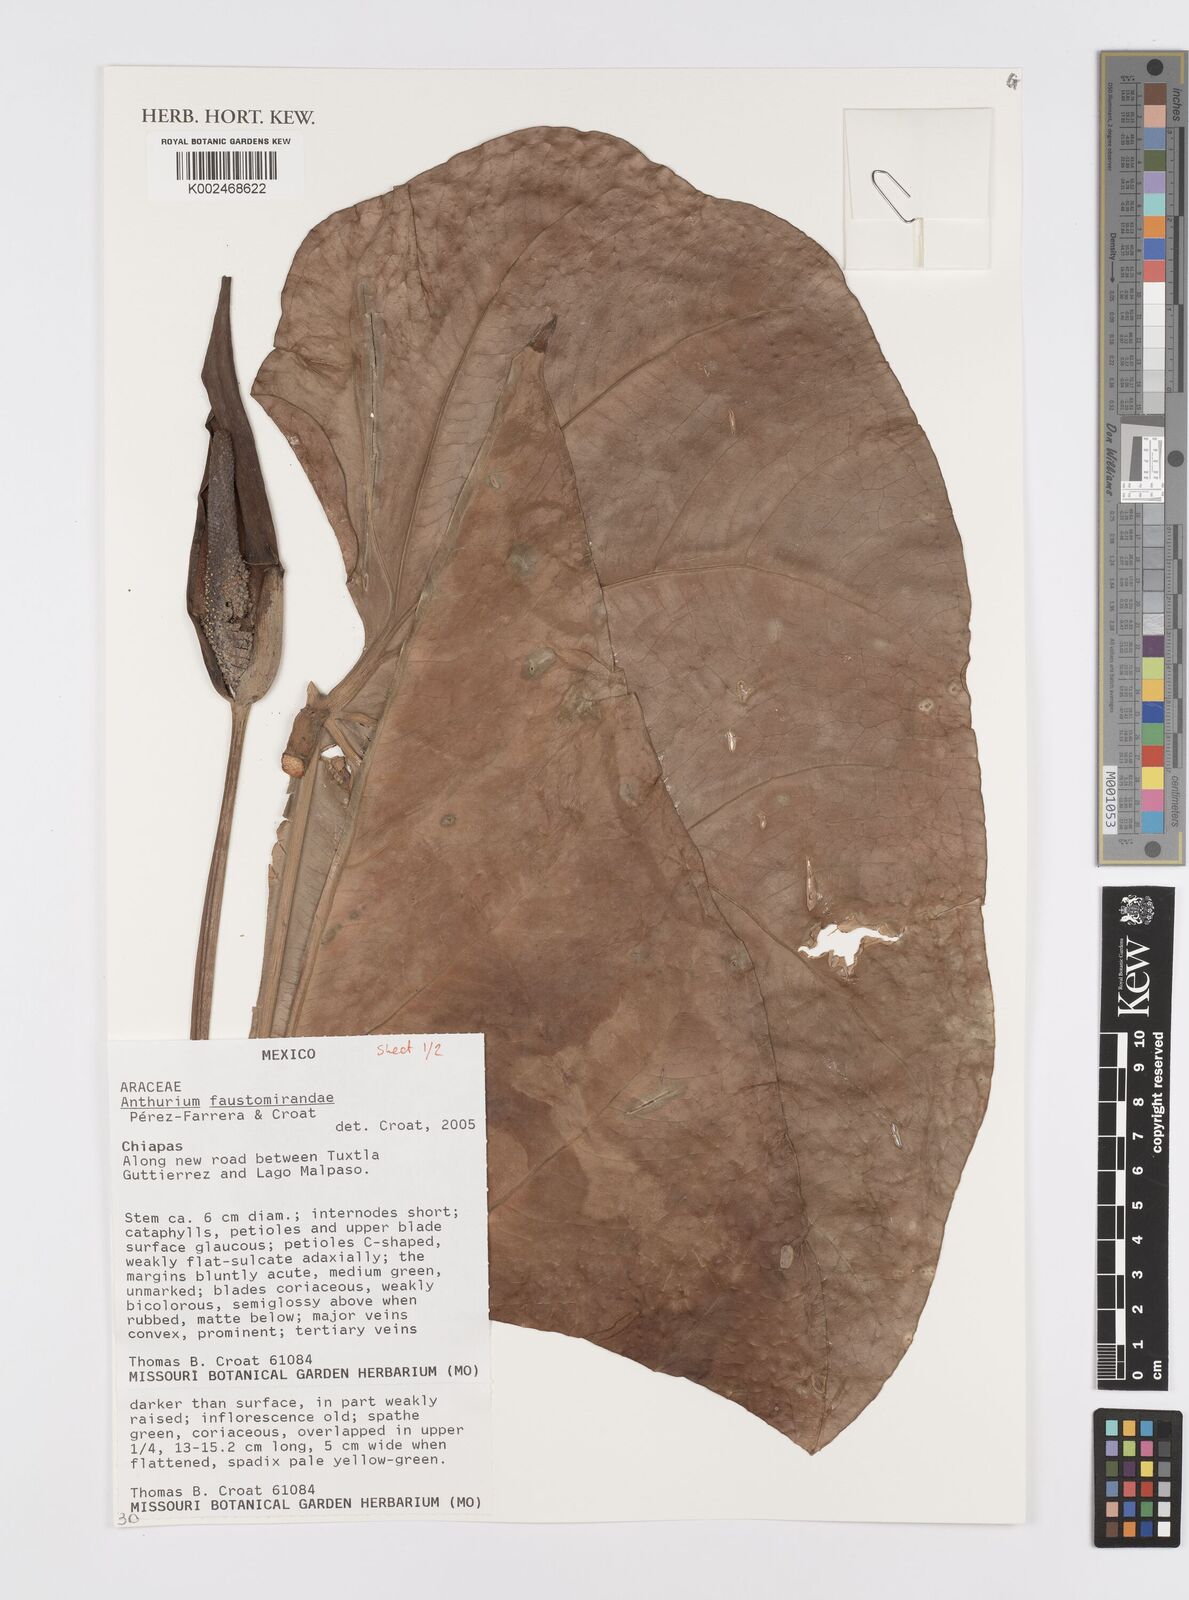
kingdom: Plantae
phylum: Tracheophyta
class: Liliopsida
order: Alismatales
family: Araceae
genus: Anthurium
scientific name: Anthurium faustomirandae
